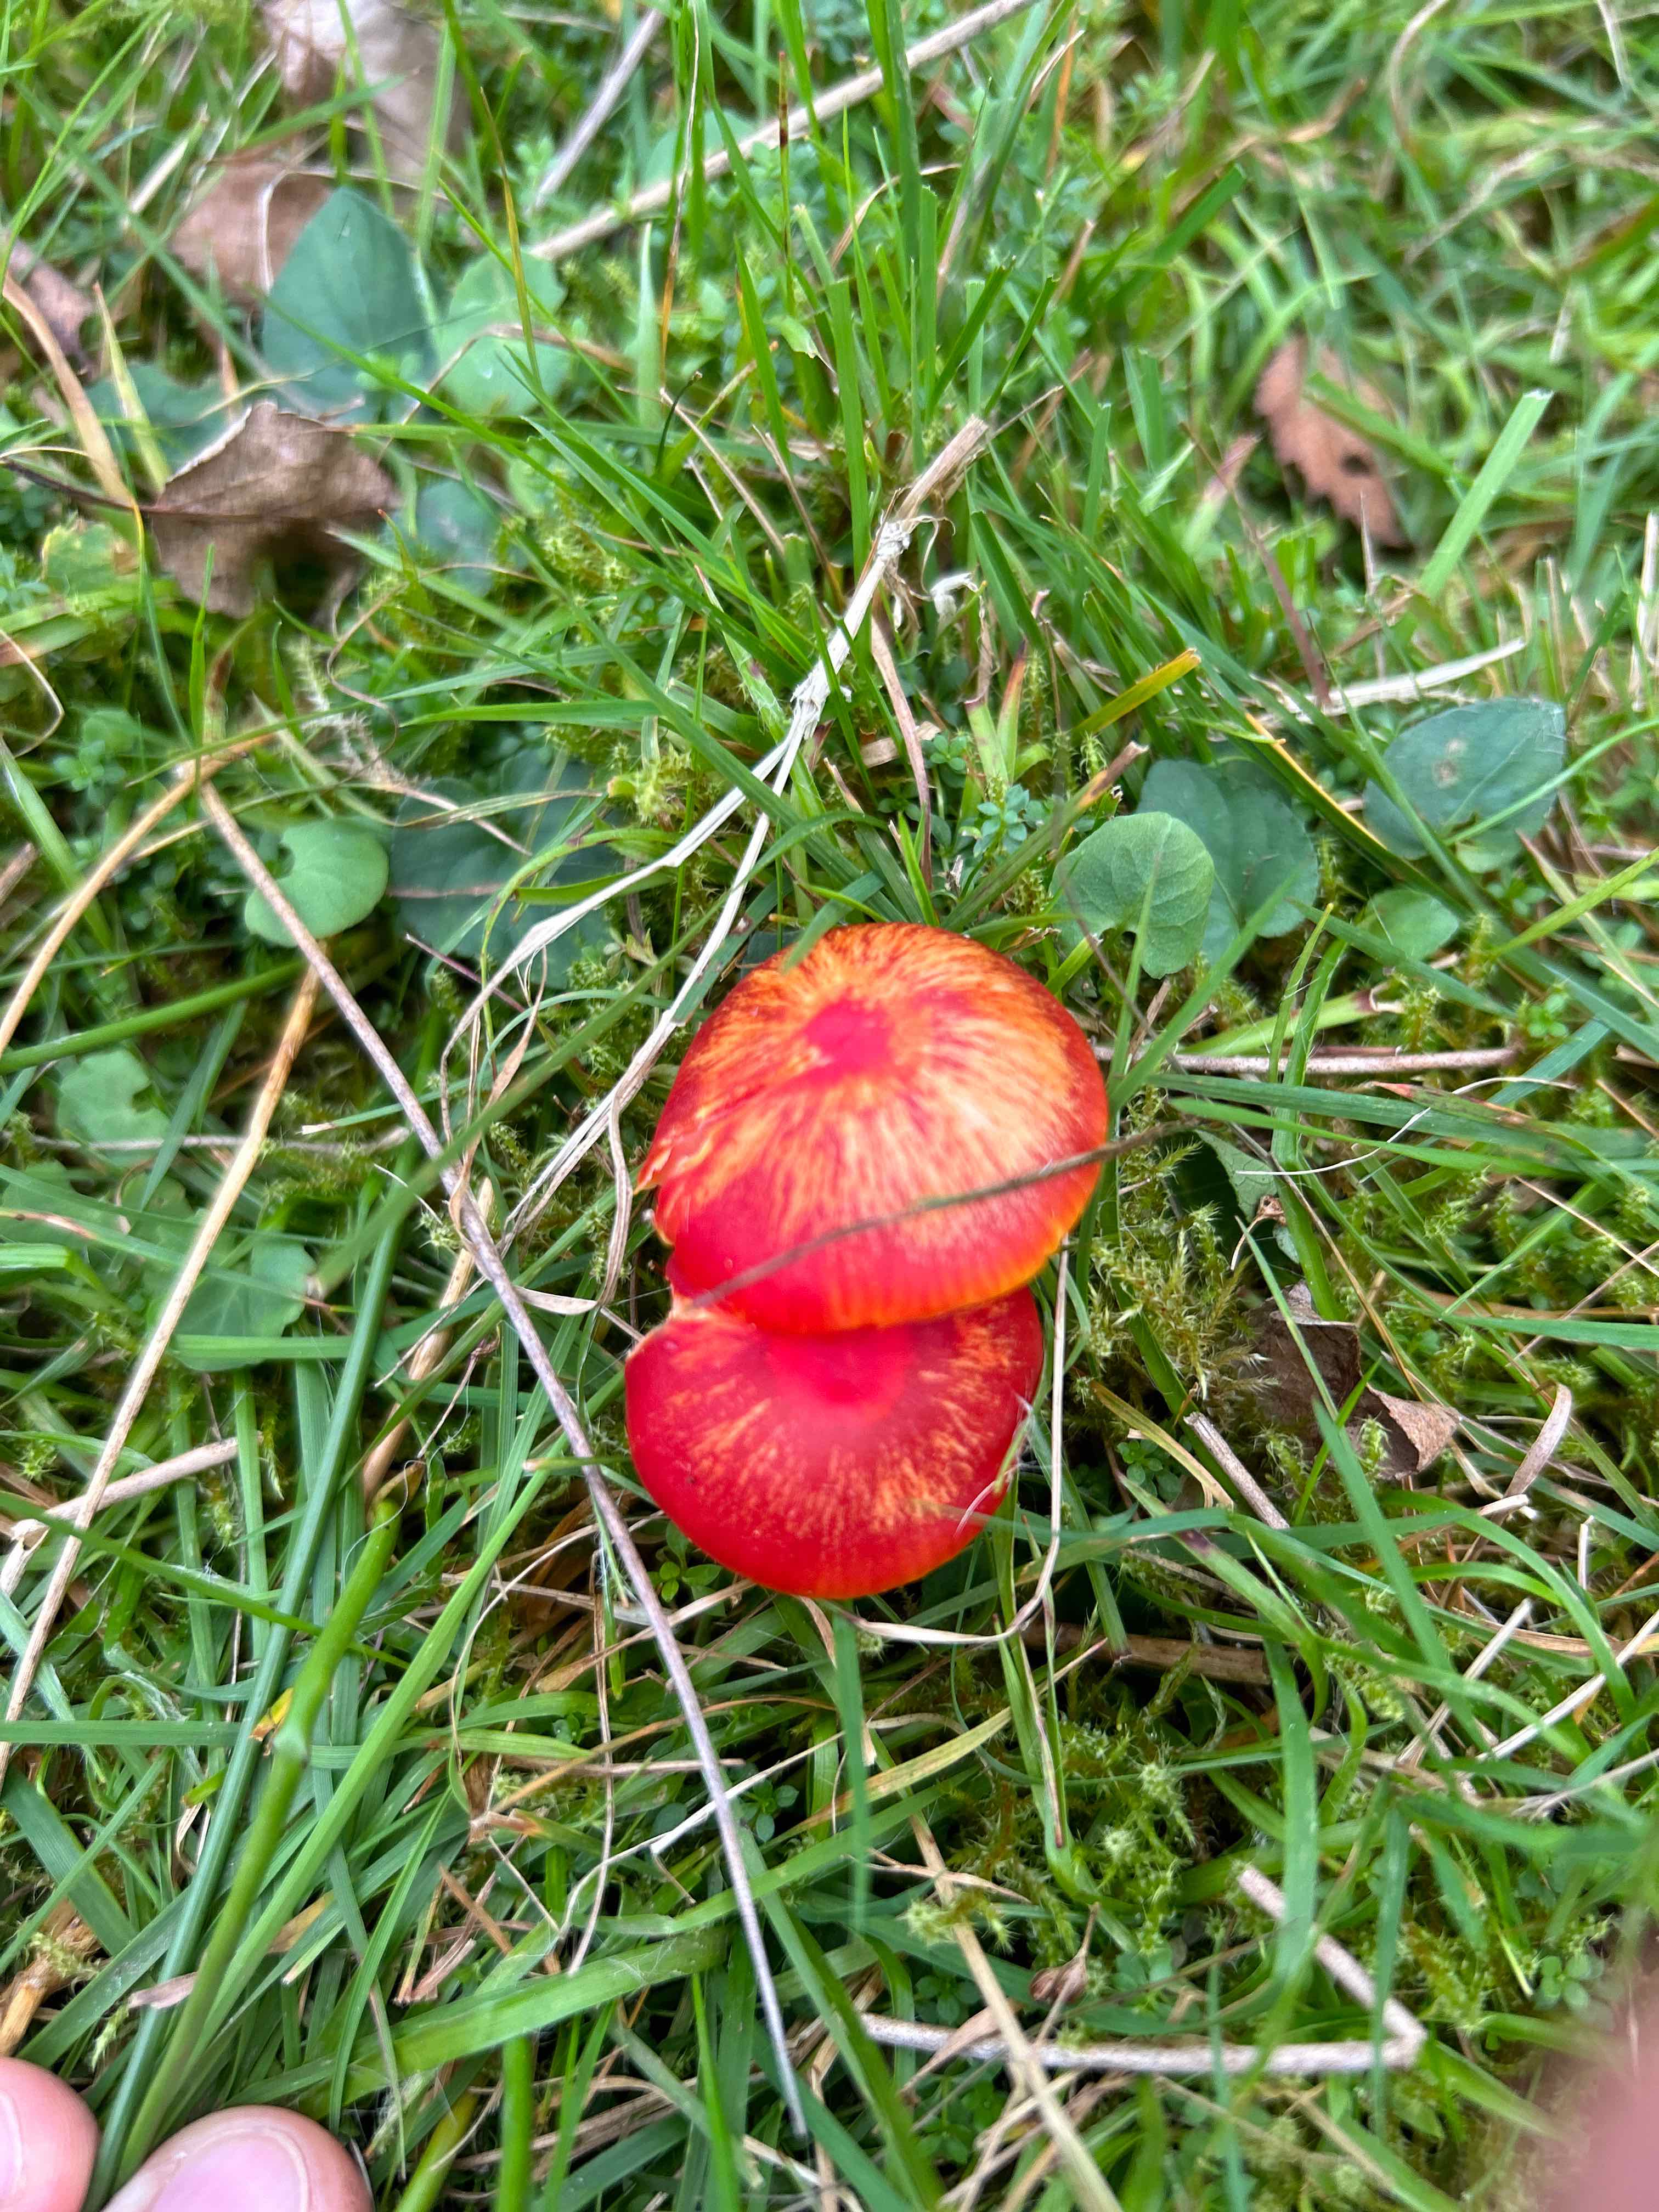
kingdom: Fungi
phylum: Basidiomycota
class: Agaricomycetes
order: Agaricales
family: Hygrophoraceae
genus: Hygrocybe
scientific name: Hygrocybe coccinea
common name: cinnober-vokshat
